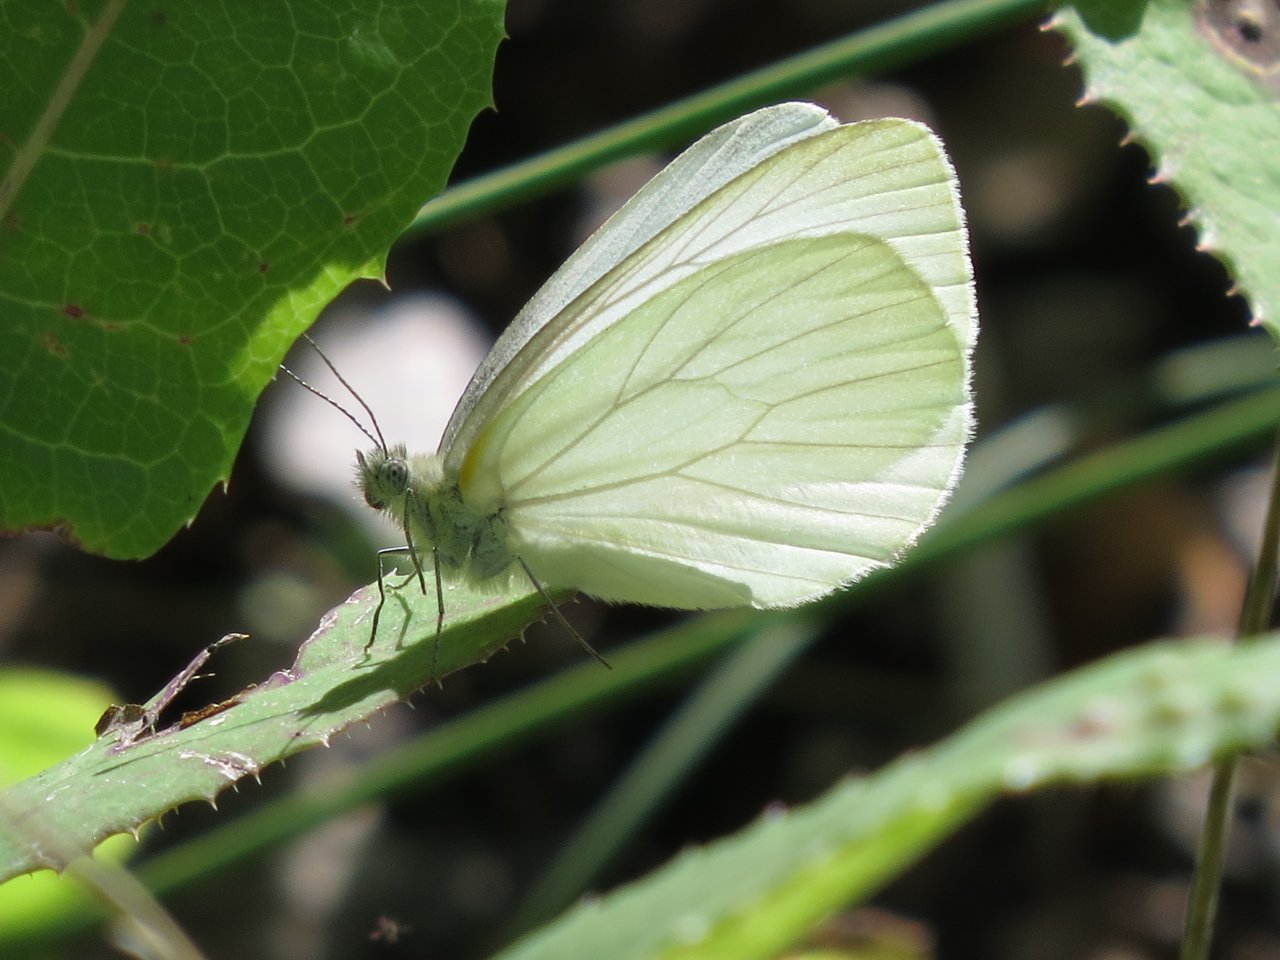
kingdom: Animalia
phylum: Arthropoda
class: Insecta
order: Lepidoptera
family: Pieridae
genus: Pieris
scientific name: Pieris oleracea
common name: Mustard White
